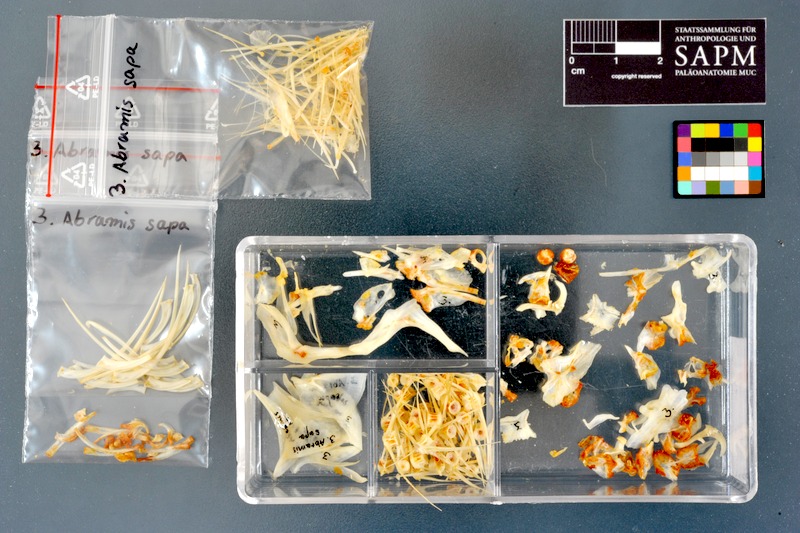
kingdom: Animalia
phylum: Chordata
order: Cypriniformes
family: Cyprinidae
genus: Ballerus
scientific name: Ballerus sapa
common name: White-eye bream
